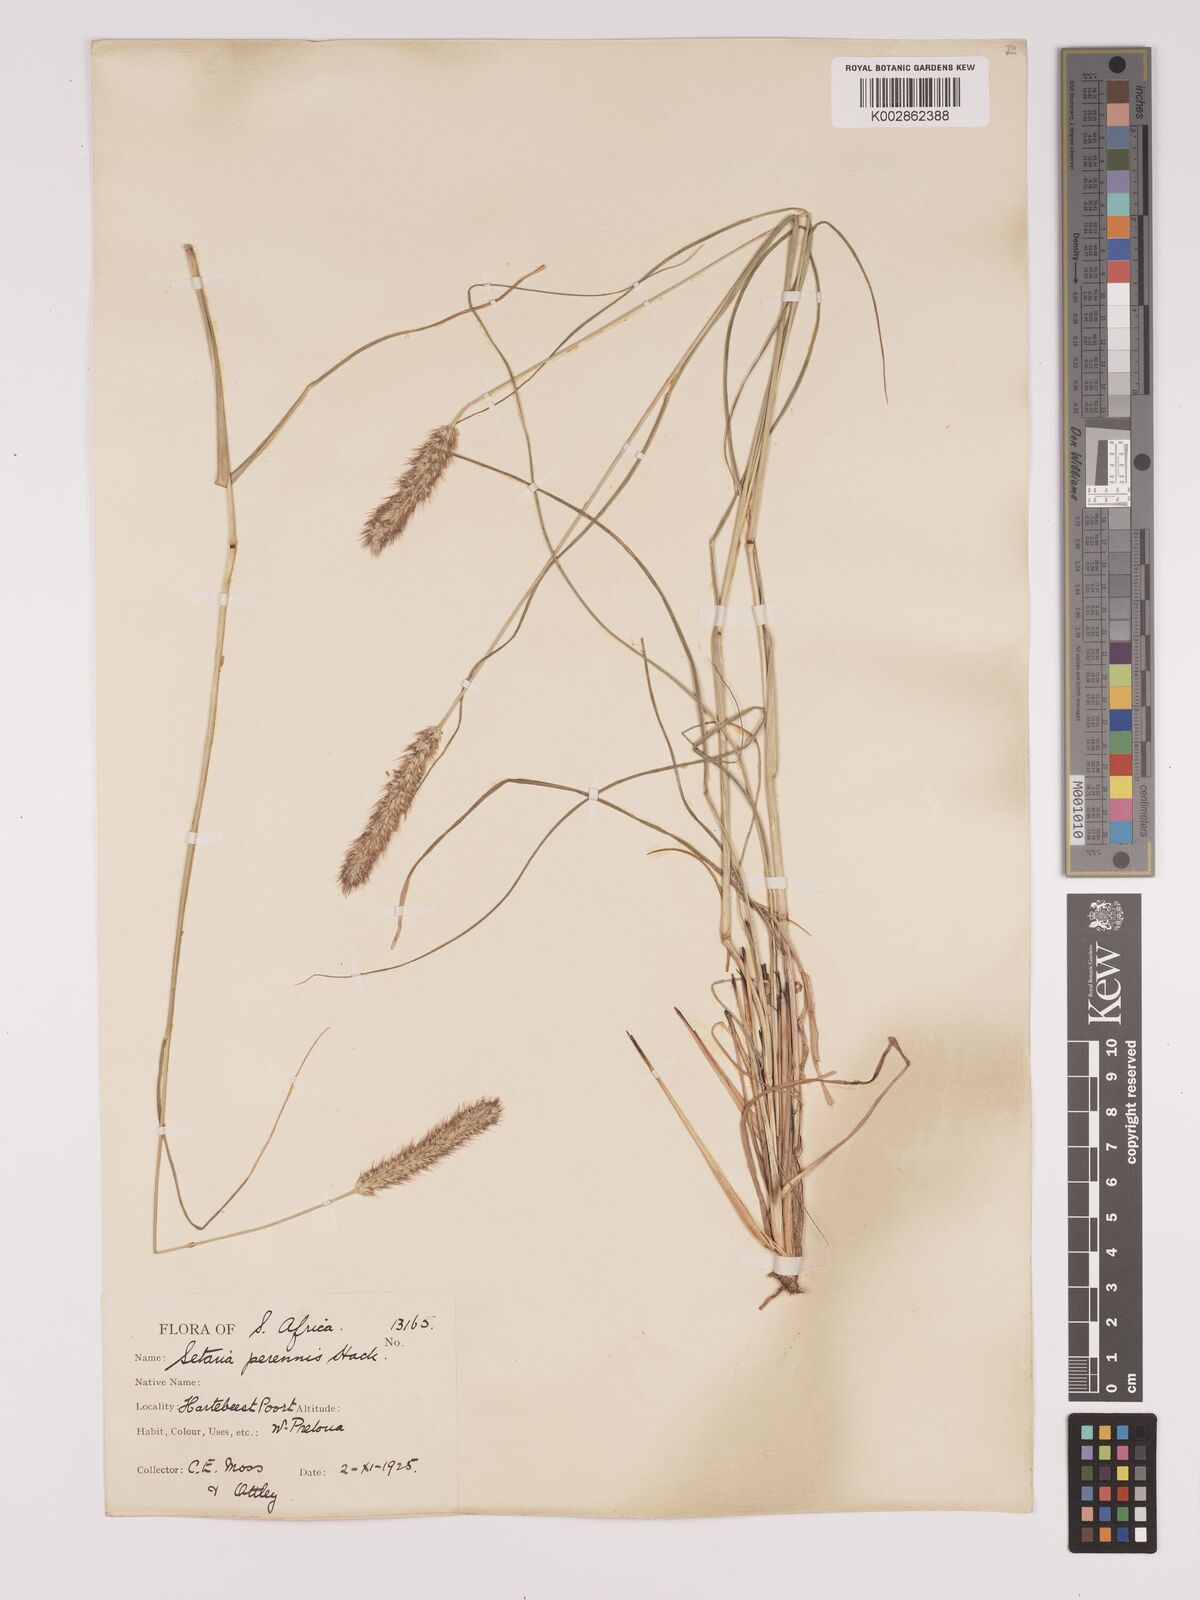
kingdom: Plantae
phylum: Tracheophyta
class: Liliopsida
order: Poales
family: Poaceae
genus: Setaria
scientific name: Setaria sphacelata
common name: African bristlegrass
